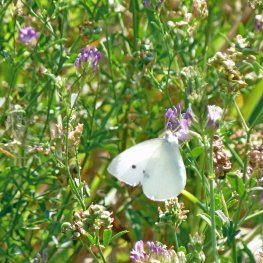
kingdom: Animalia
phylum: Arthropoda
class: Insecta
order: Lepidoptera
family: Pieridae
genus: Pieris
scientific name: Pieris rapae
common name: Cabbage White
